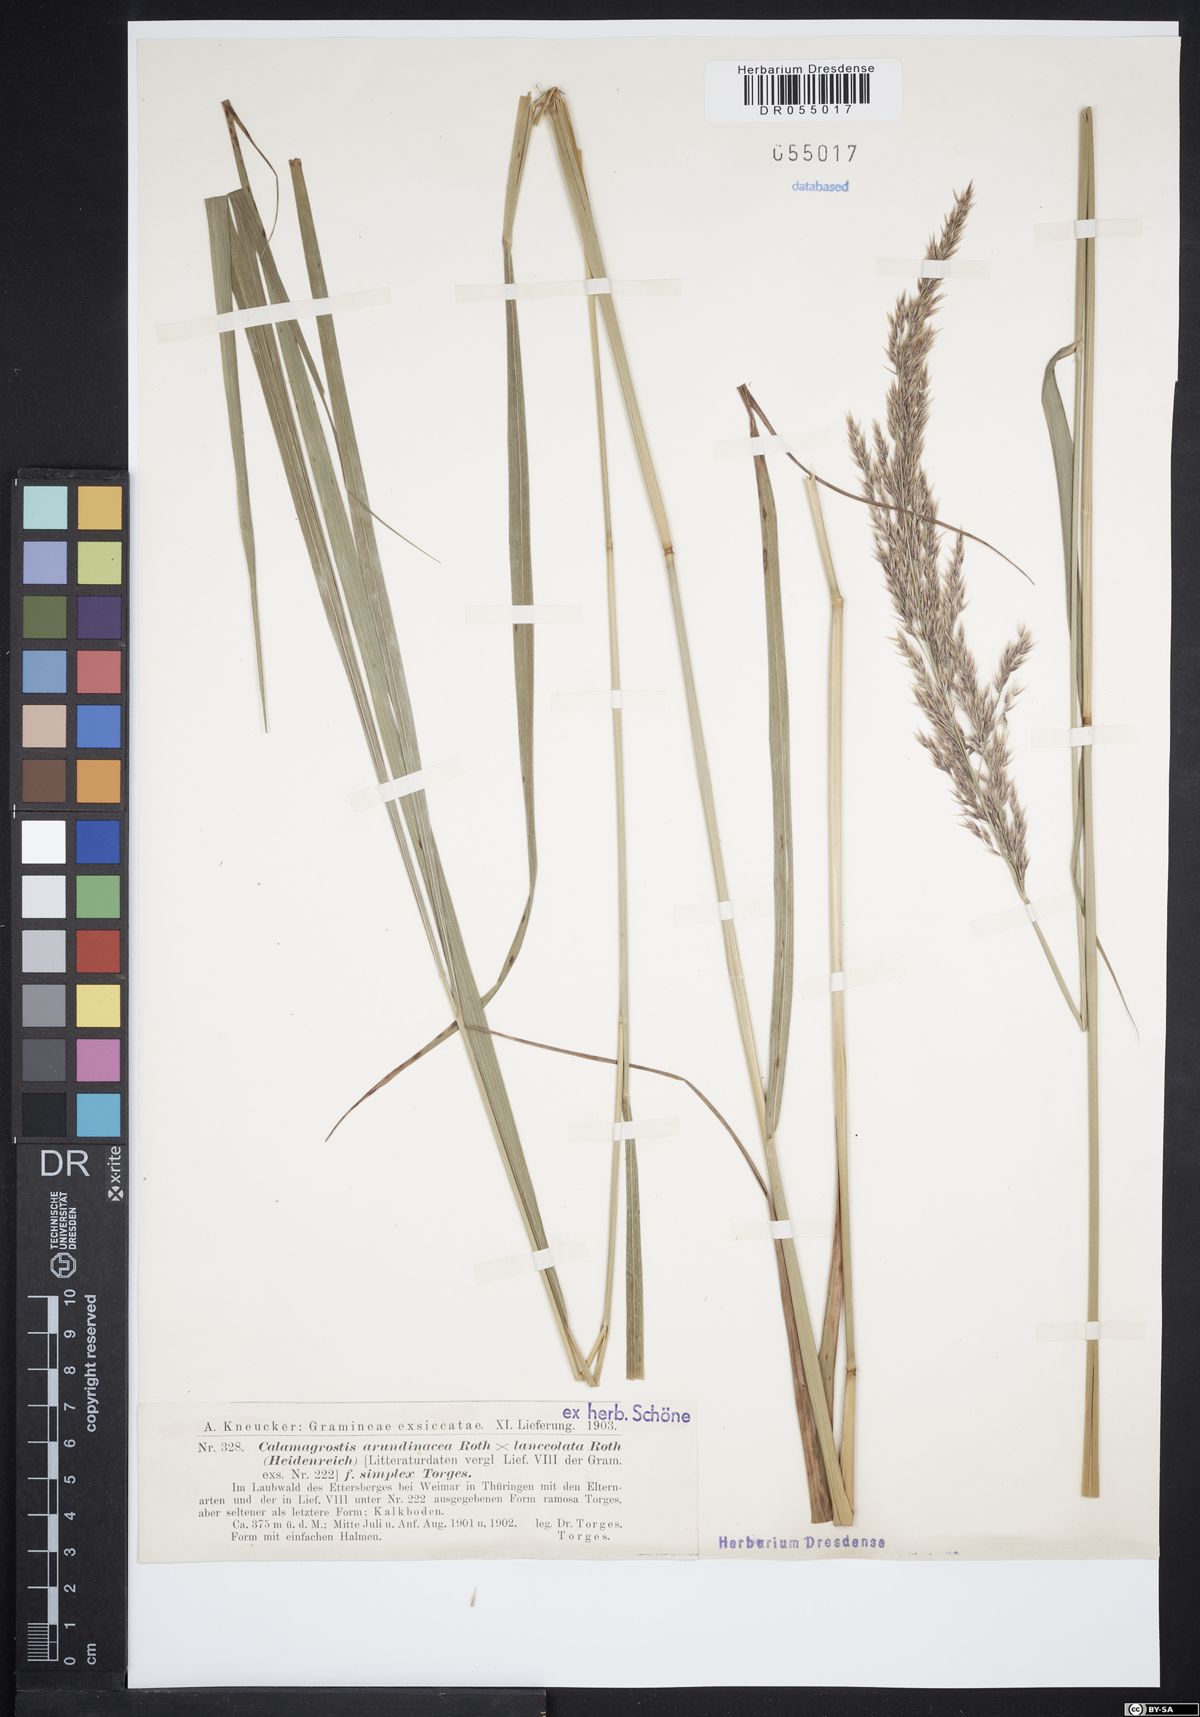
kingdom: Plantae
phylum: Tracheophyta
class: Liliopsida
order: Poales
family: Poaceae
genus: Calamagrostis
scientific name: Calamagrostis hartmaniana
